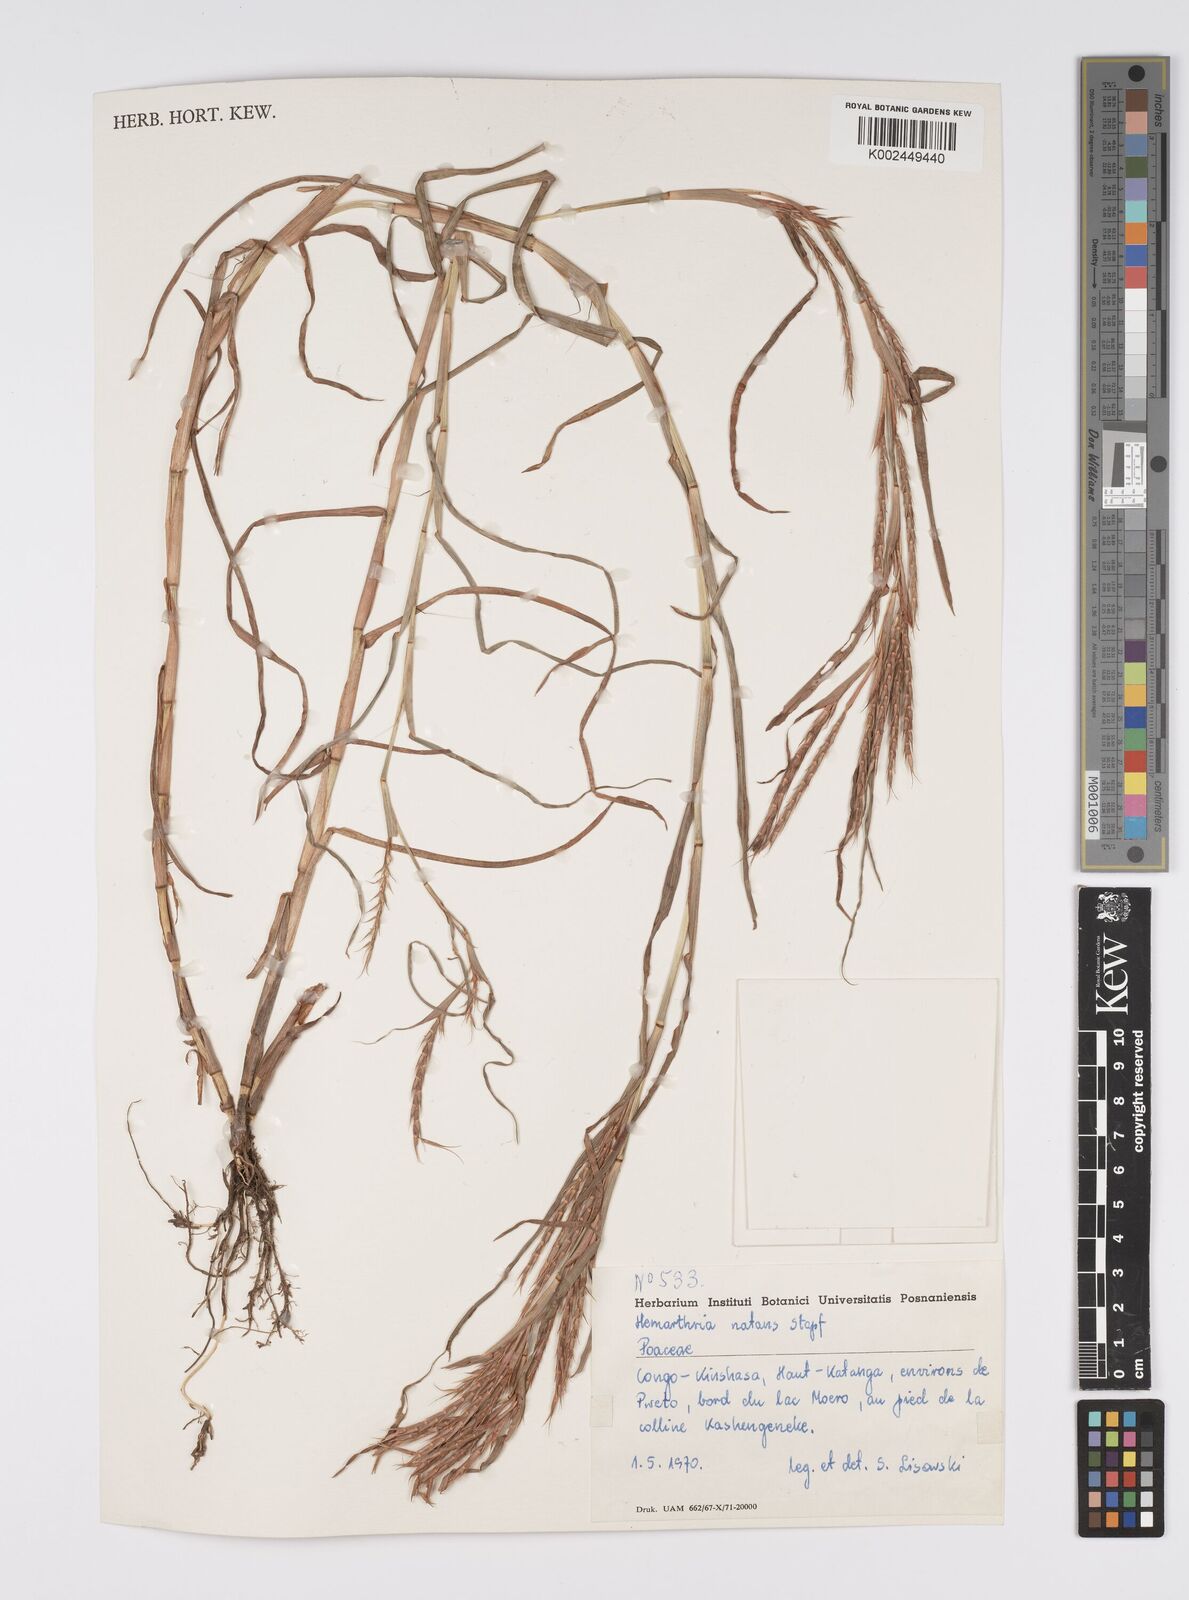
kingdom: Plantae
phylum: Tracheophyta
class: Liliopsida
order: Poales
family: Poaceae
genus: Hemarthria
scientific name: Hemarthria natans
